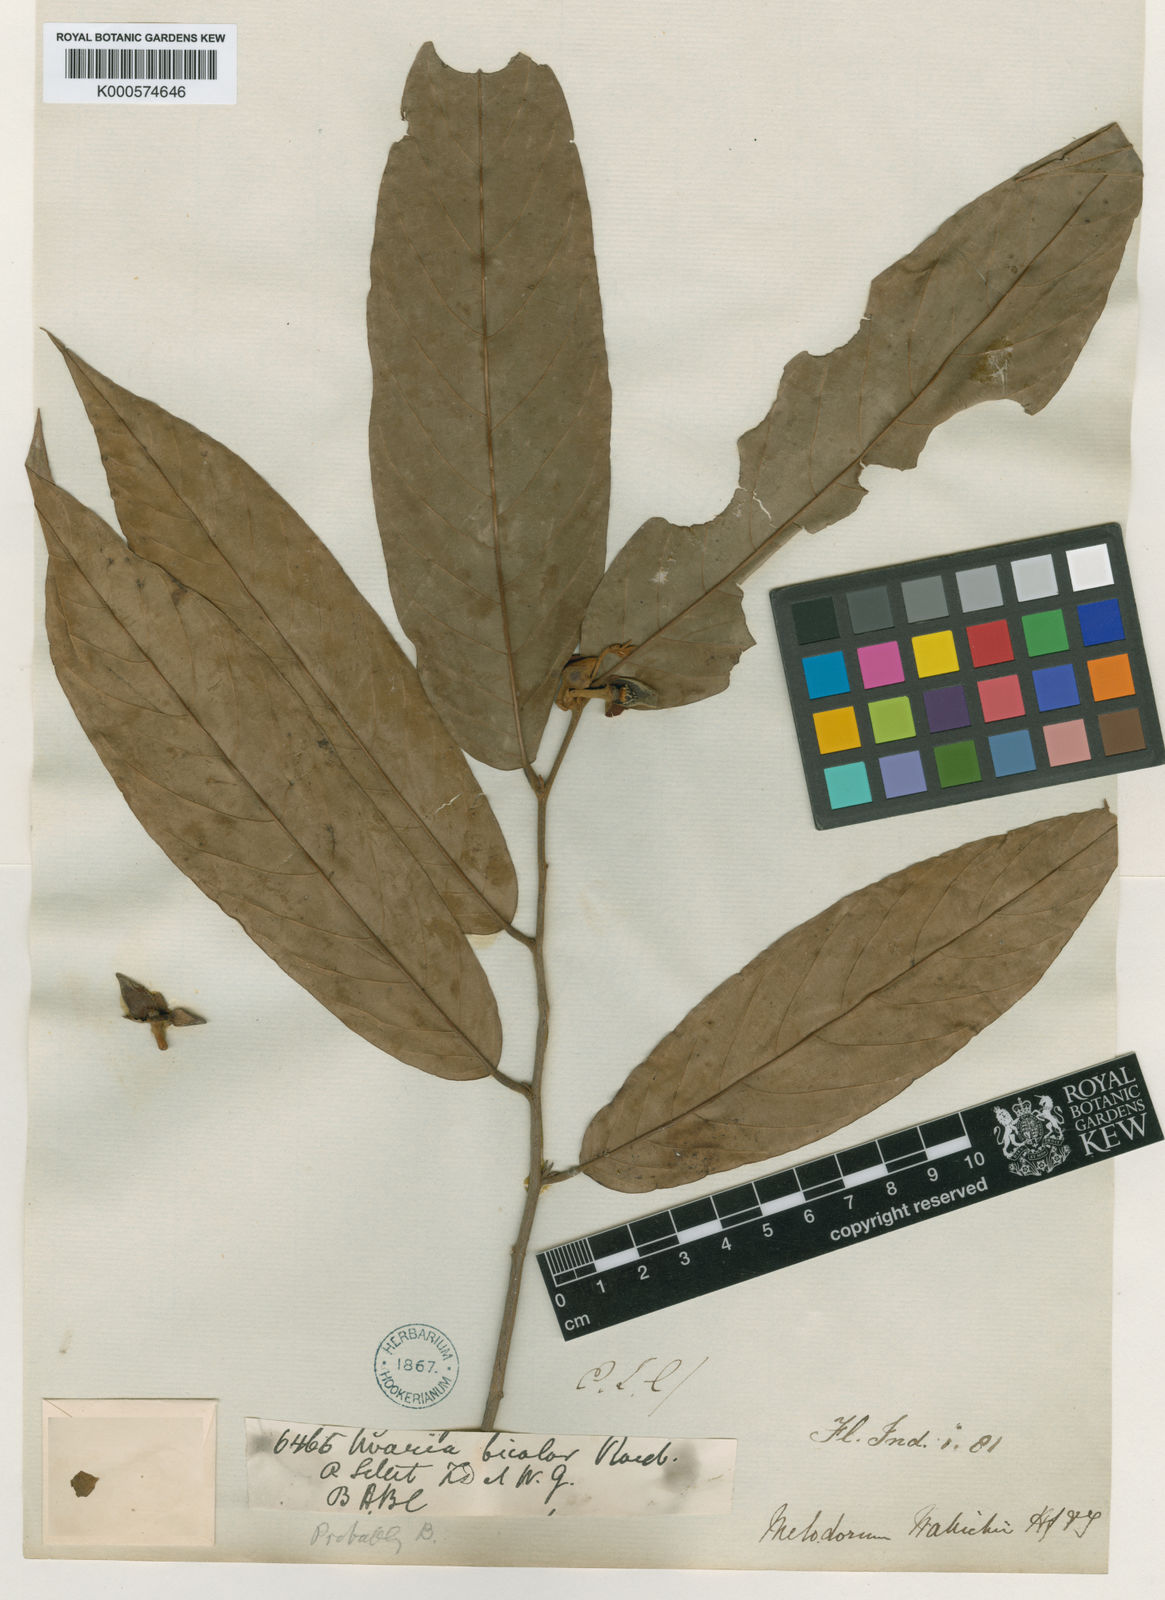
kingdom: Plantae
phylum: Tracheophyta
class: Magnoliopsida
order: Magnoliales
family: Annonaceae
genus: Fissistigma
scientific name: Fissistigma wallichii
